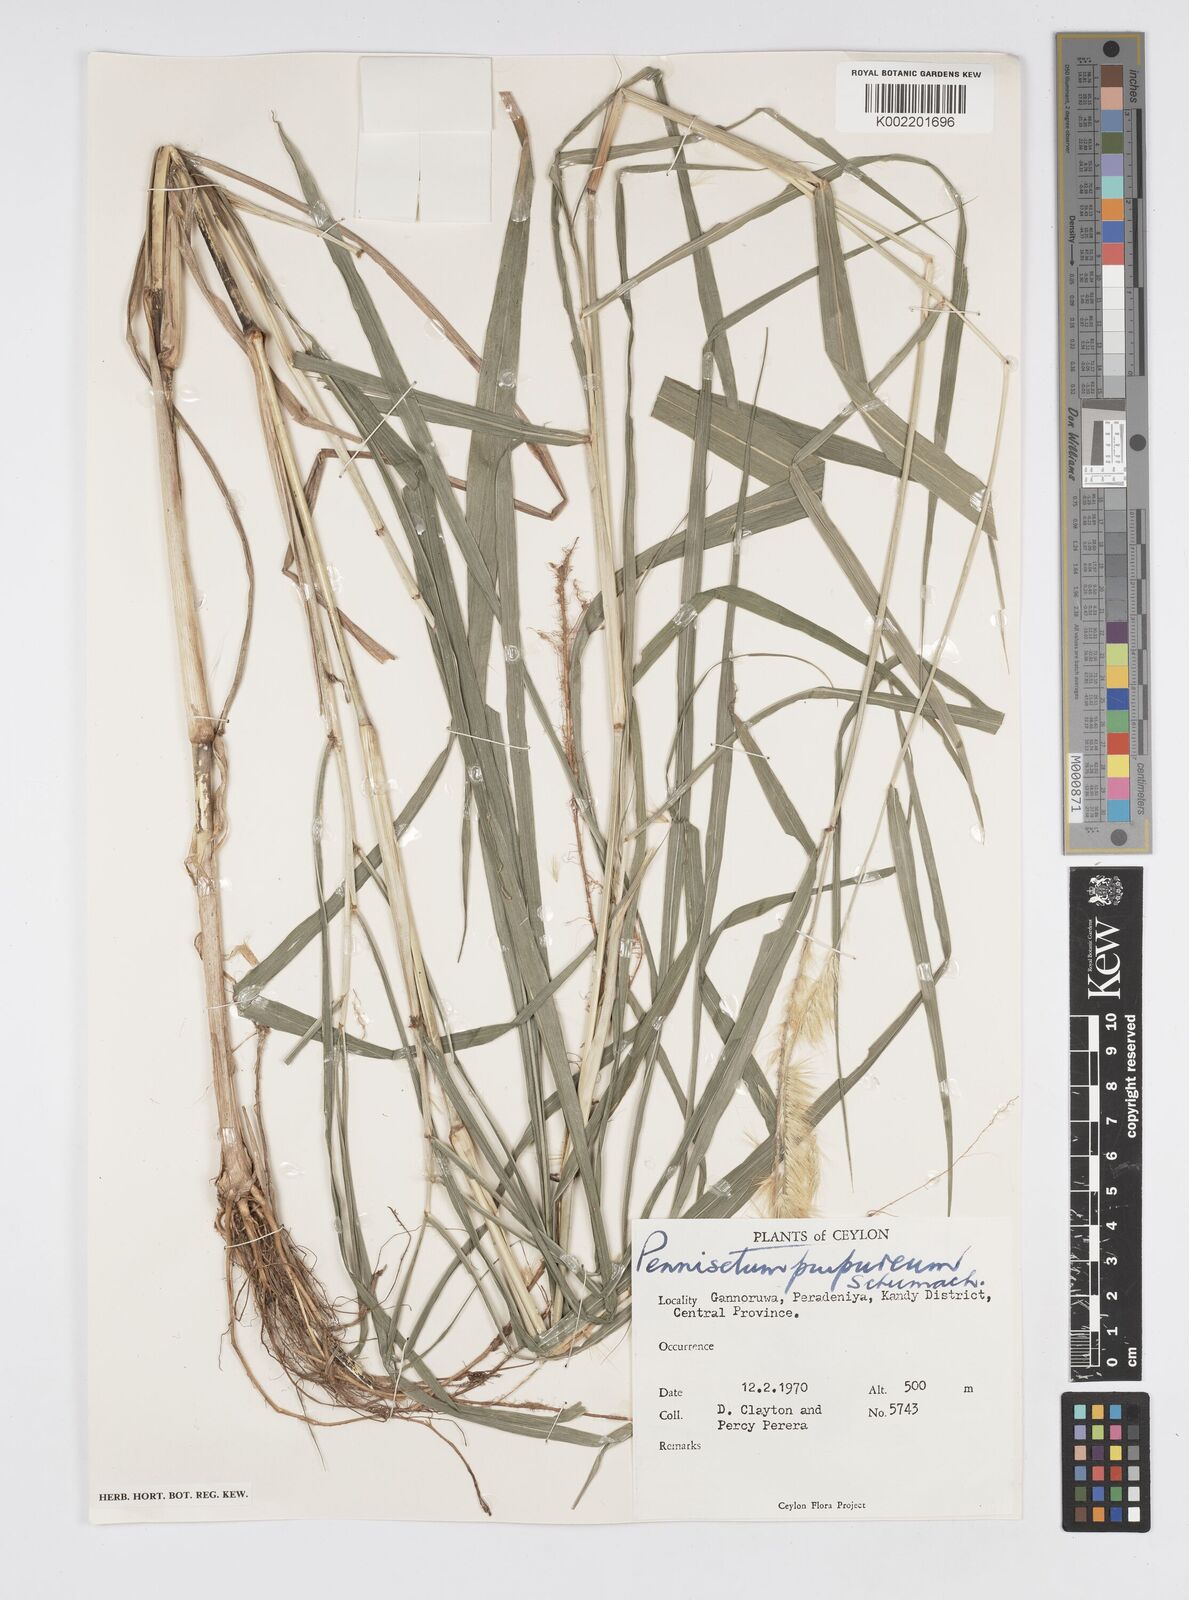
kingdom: Plantae
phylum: Tracheophyta
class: Liliopsida
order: Poales
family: Poaceae
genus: Cenchrus
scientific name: Cenchrus purpureus
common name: Elephant grass
